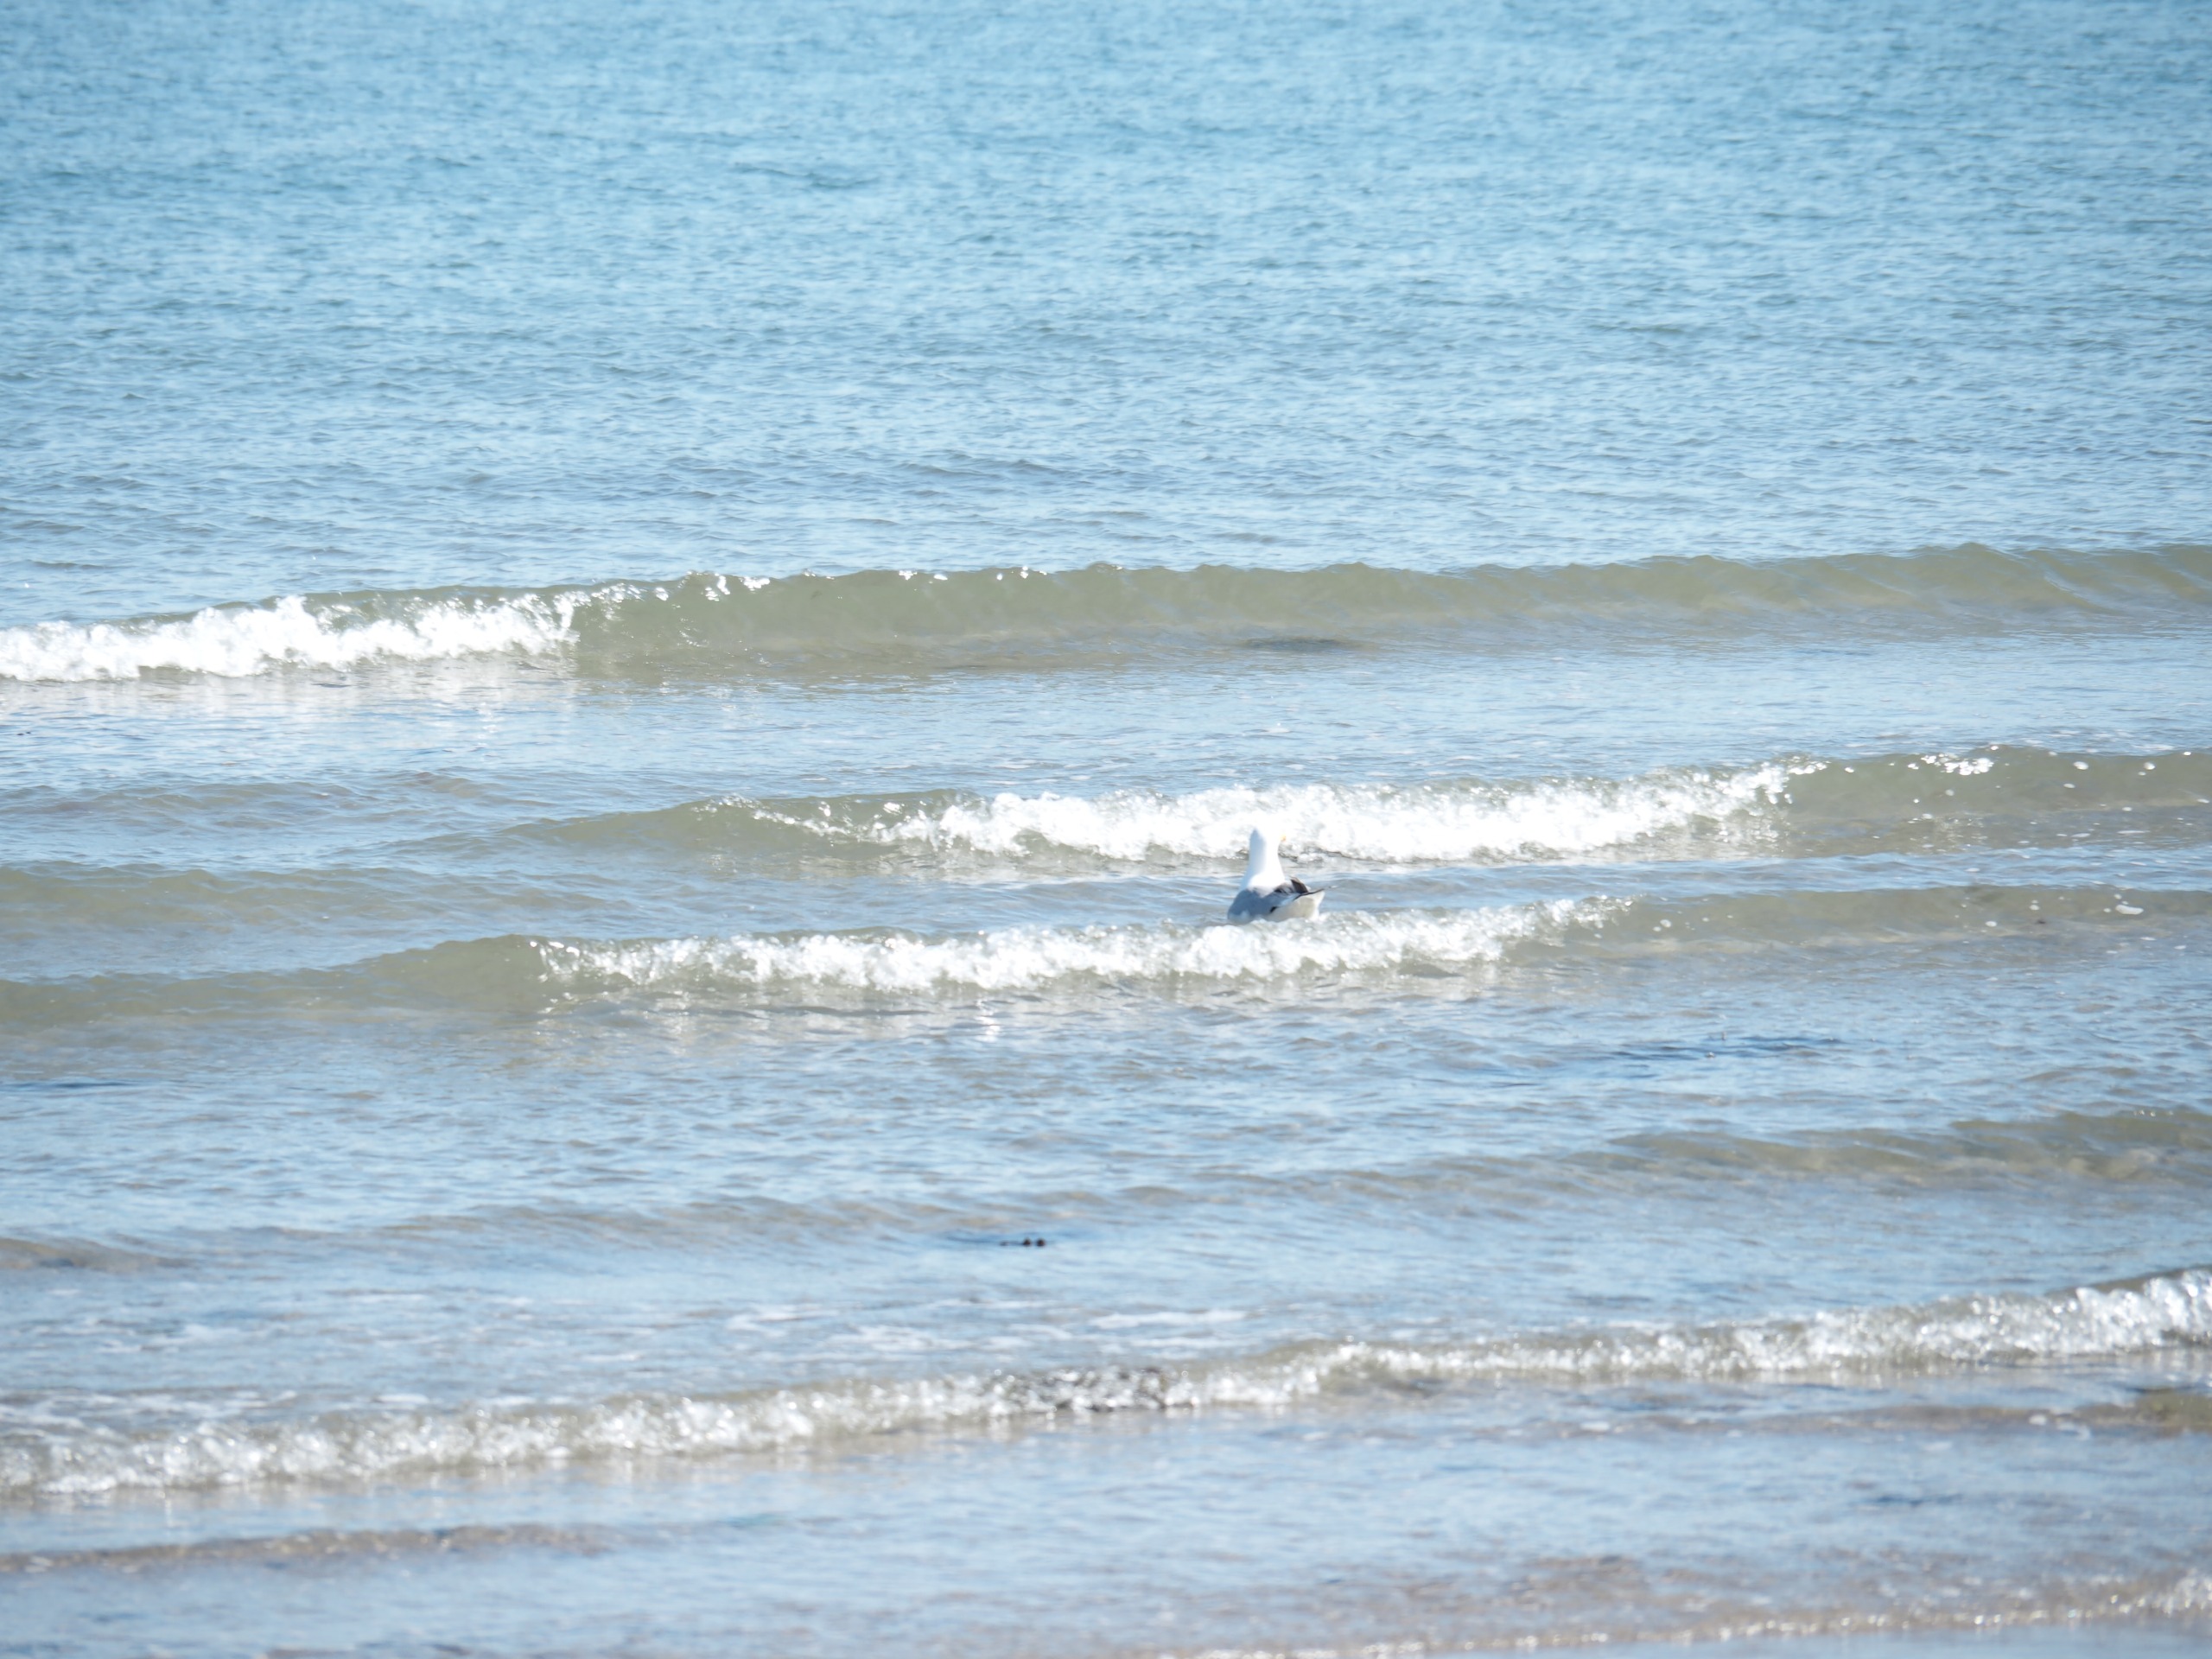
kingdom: Animalia
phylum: Chordata
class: Aves
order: Charadriiformes
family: Laridae
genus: Larus
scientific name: Larus argentatus
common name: Sølvmåge
